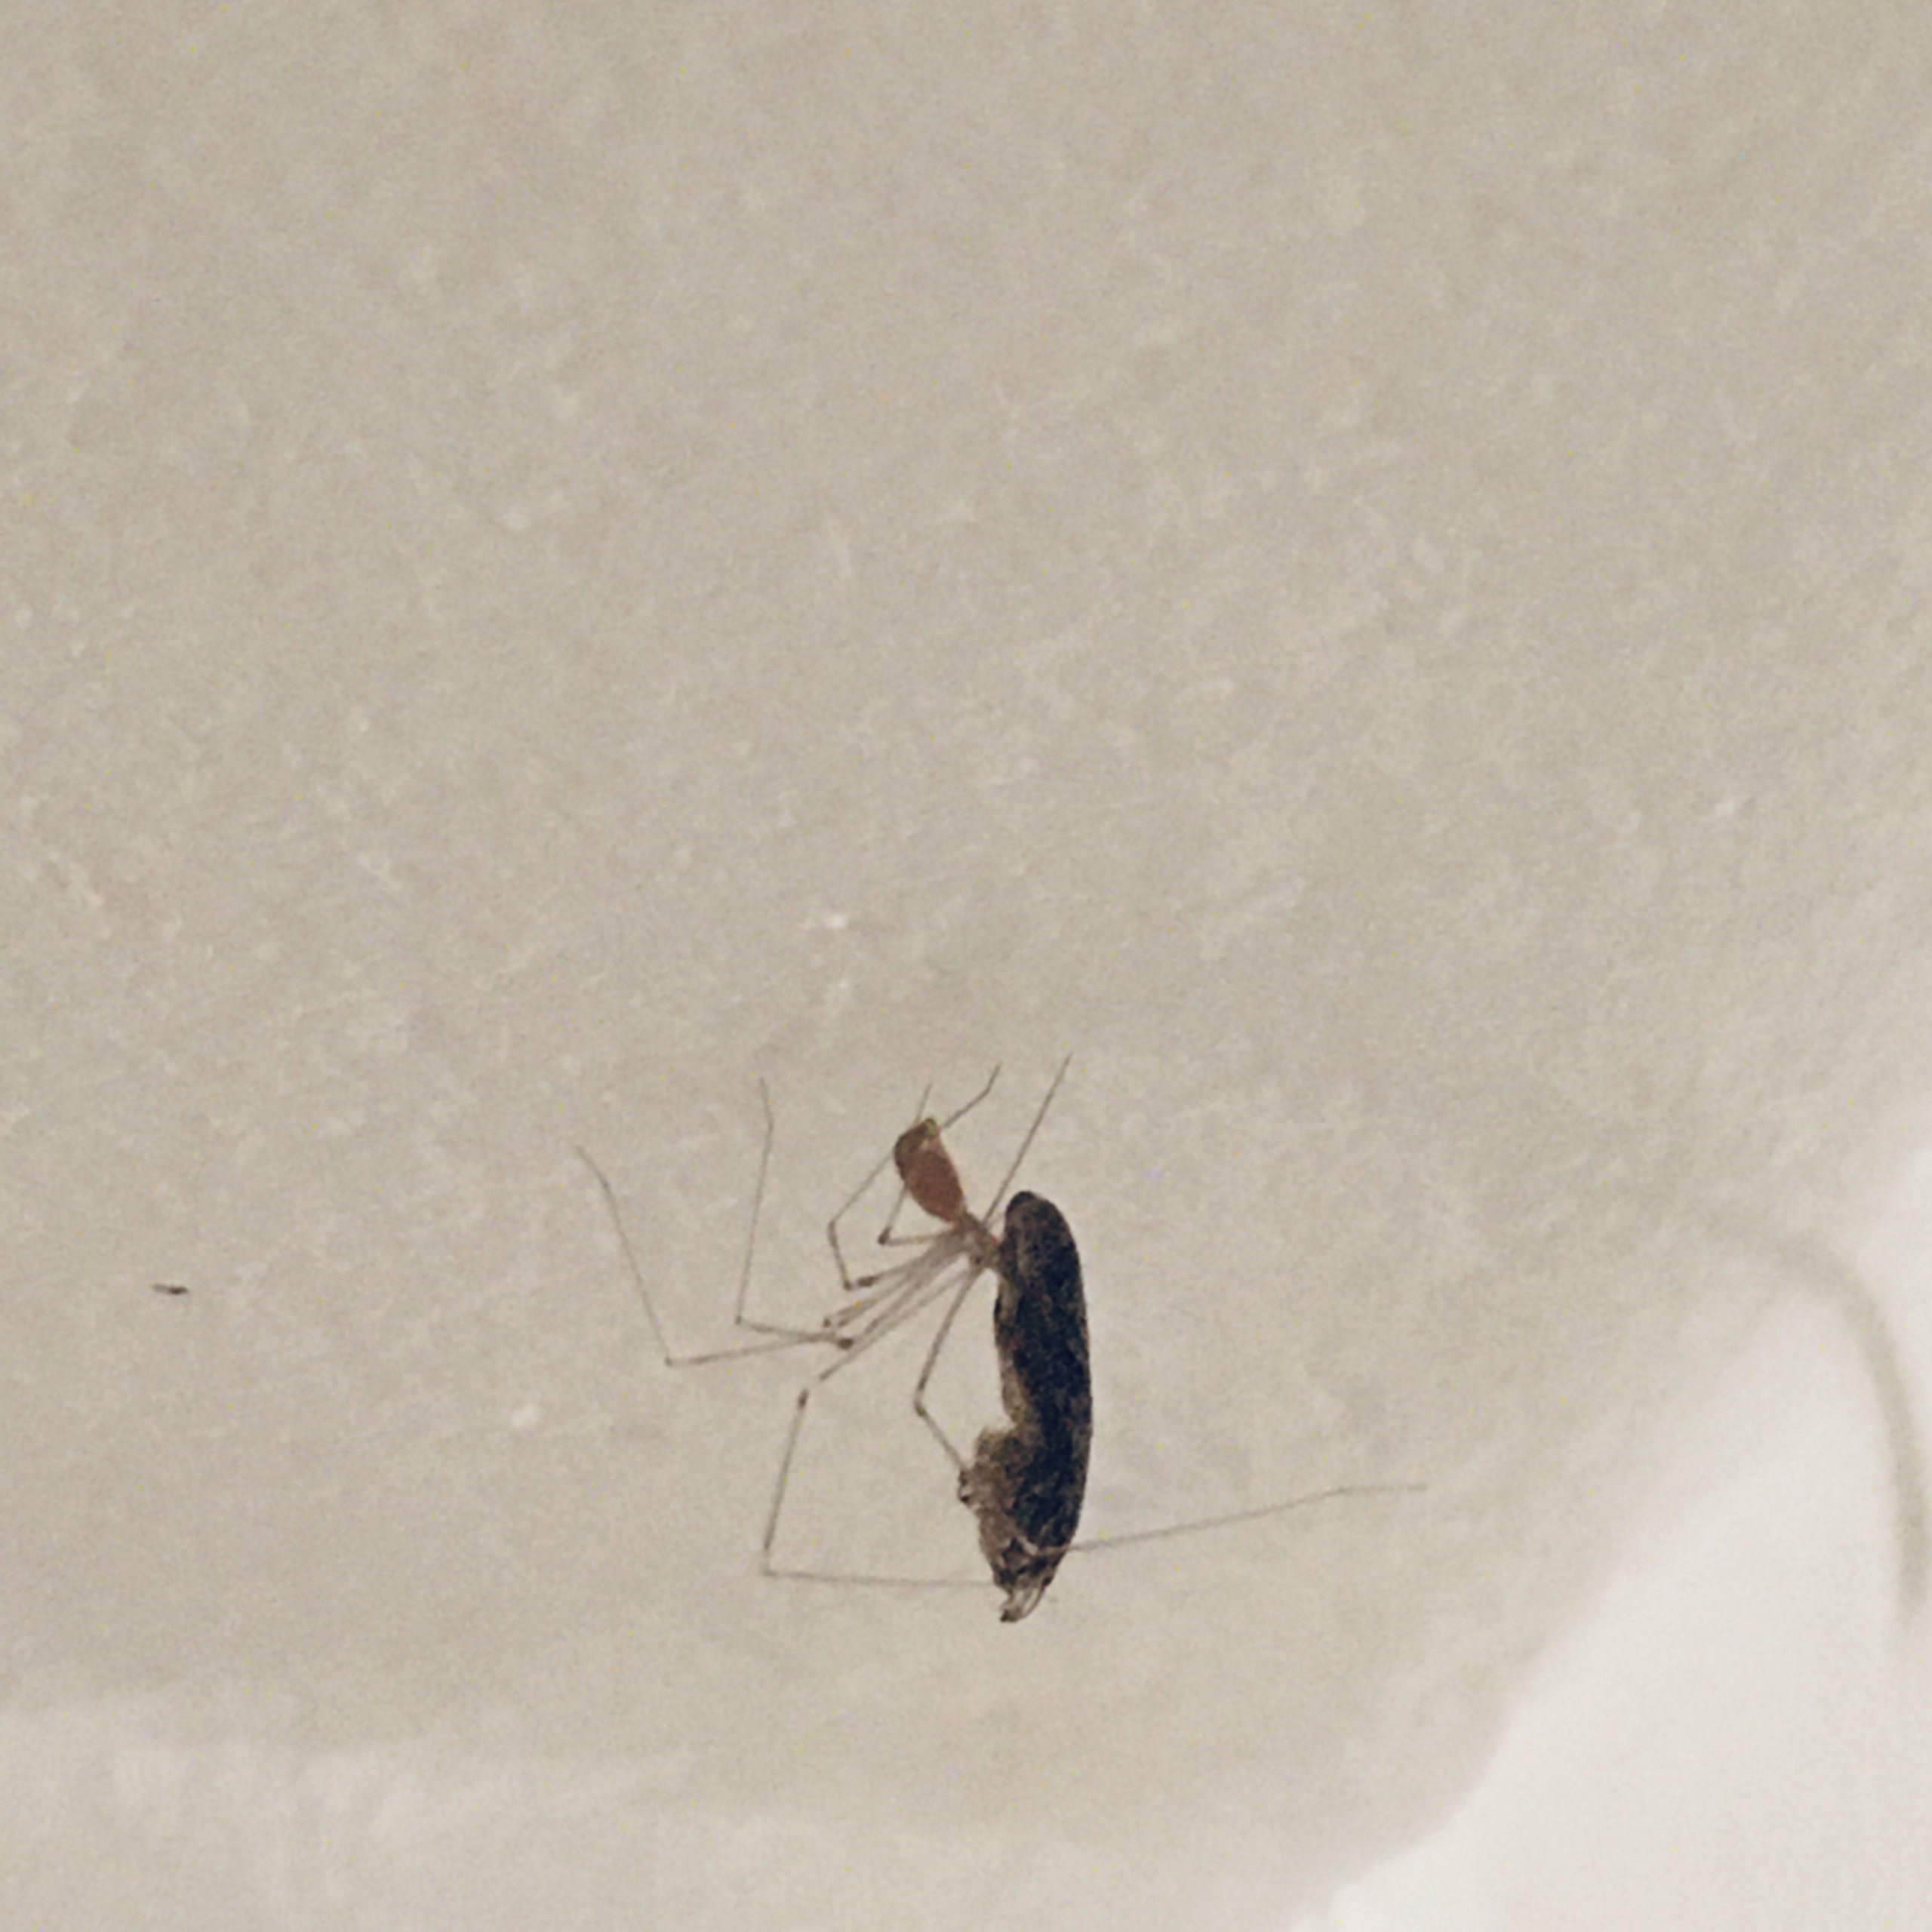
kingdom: Animalia
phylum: Arthropoda
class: Arachnida
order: Araneae
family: Pholcidae
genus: Pholcus
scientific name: Pholcus phalangioides
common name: Mejeredderkop
